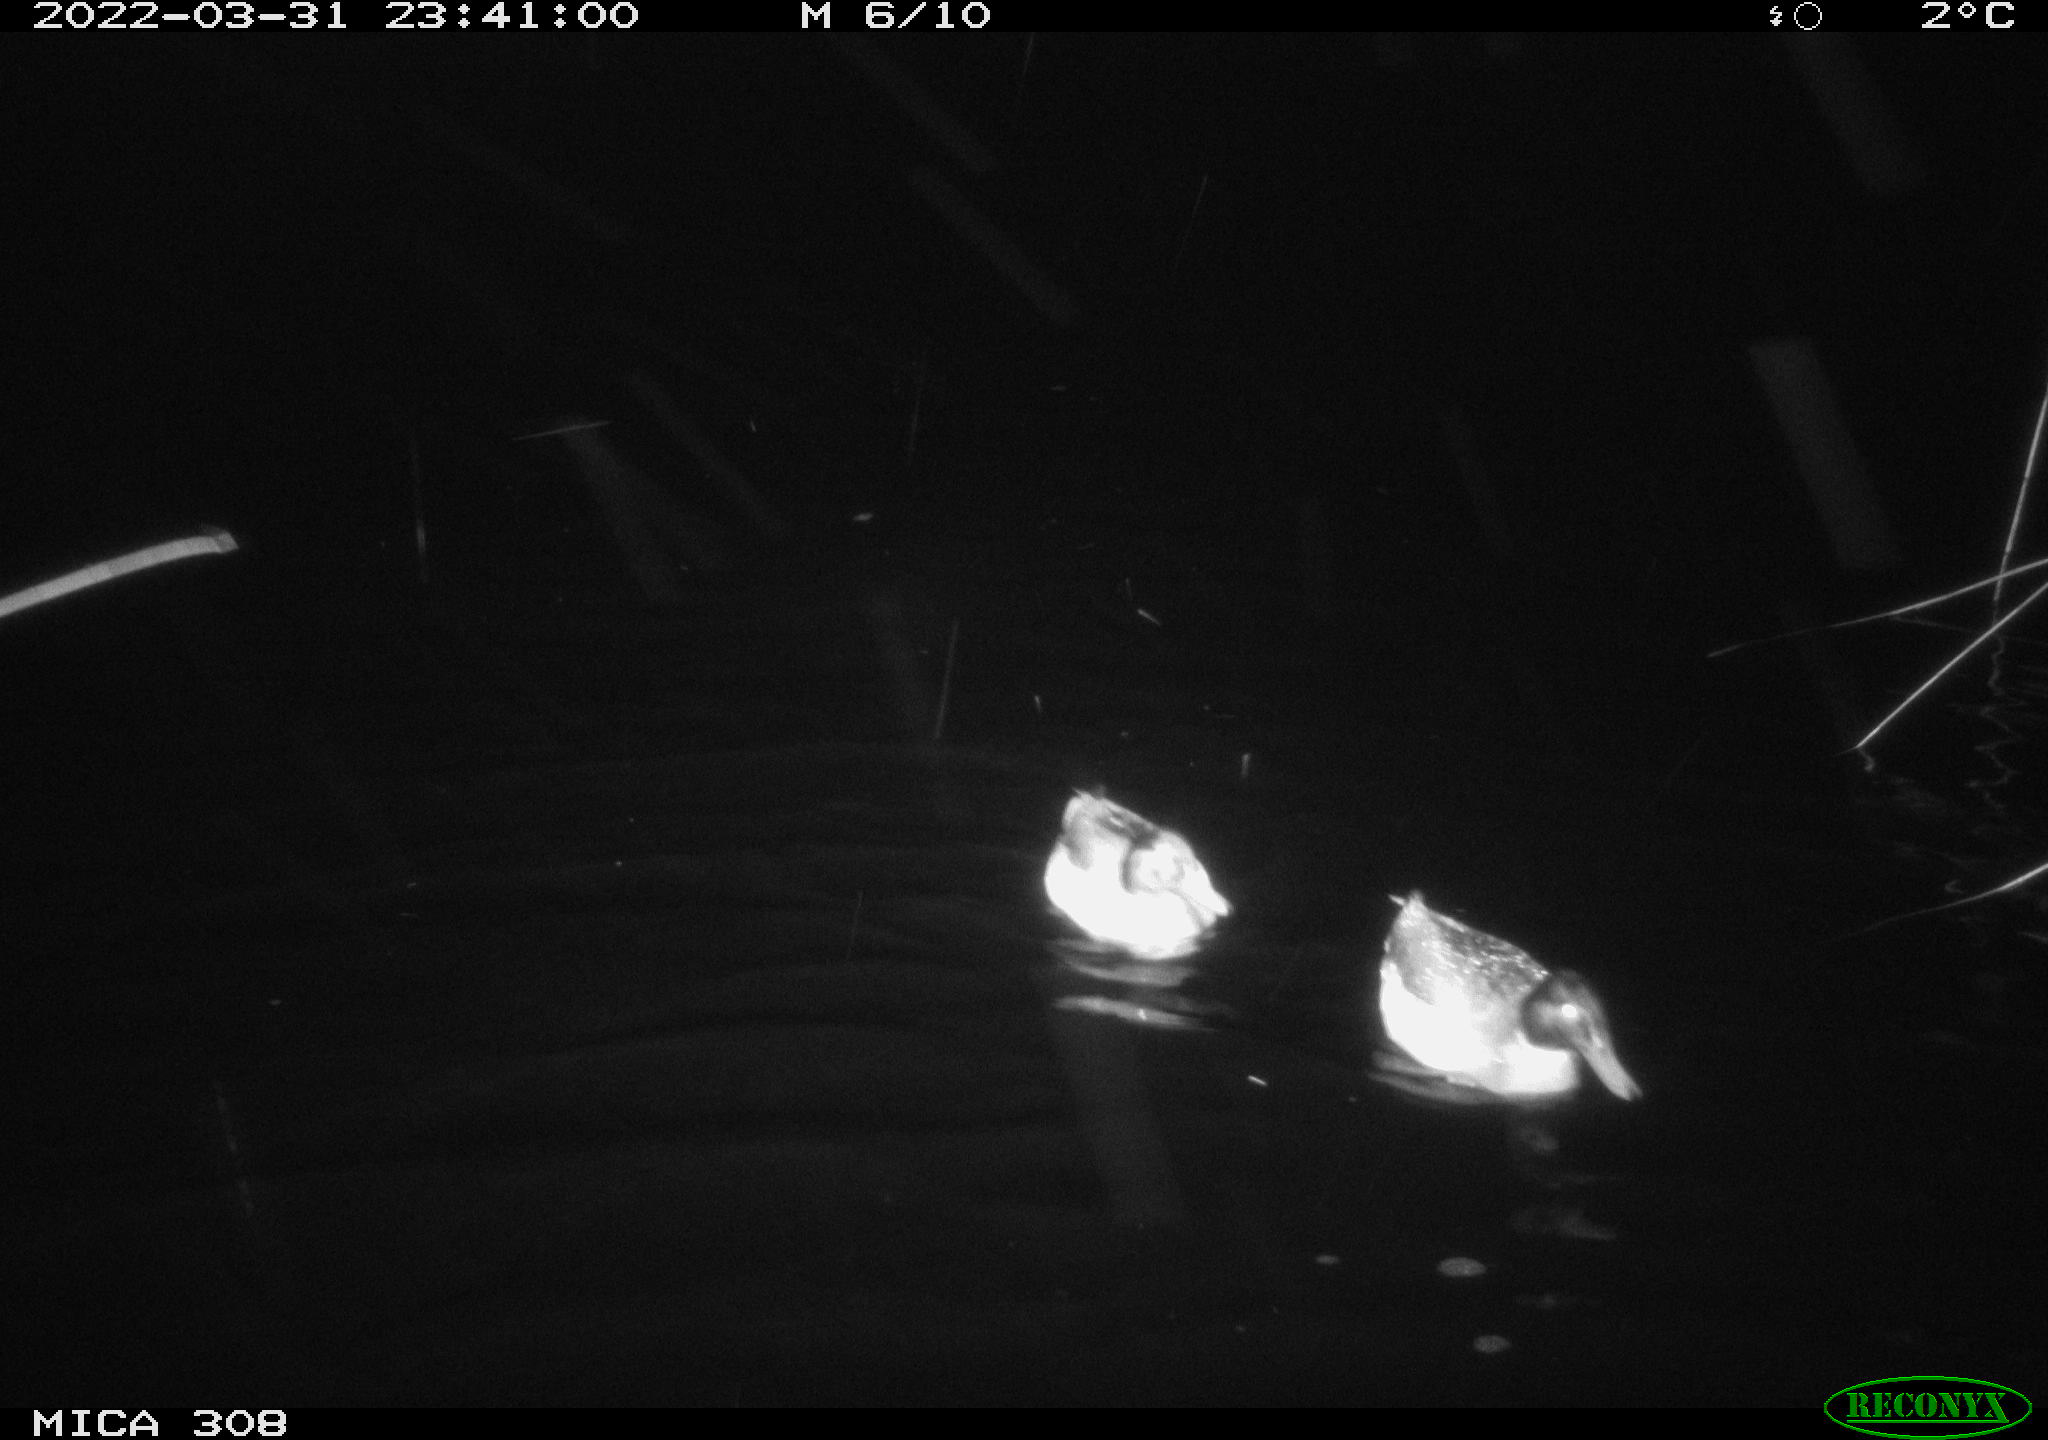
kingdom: Animalia
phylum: Chordata
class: Aves
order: Anseriformes
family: Anatidae
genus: Anas
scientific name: Anas platyrhynchos
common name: Mallard
